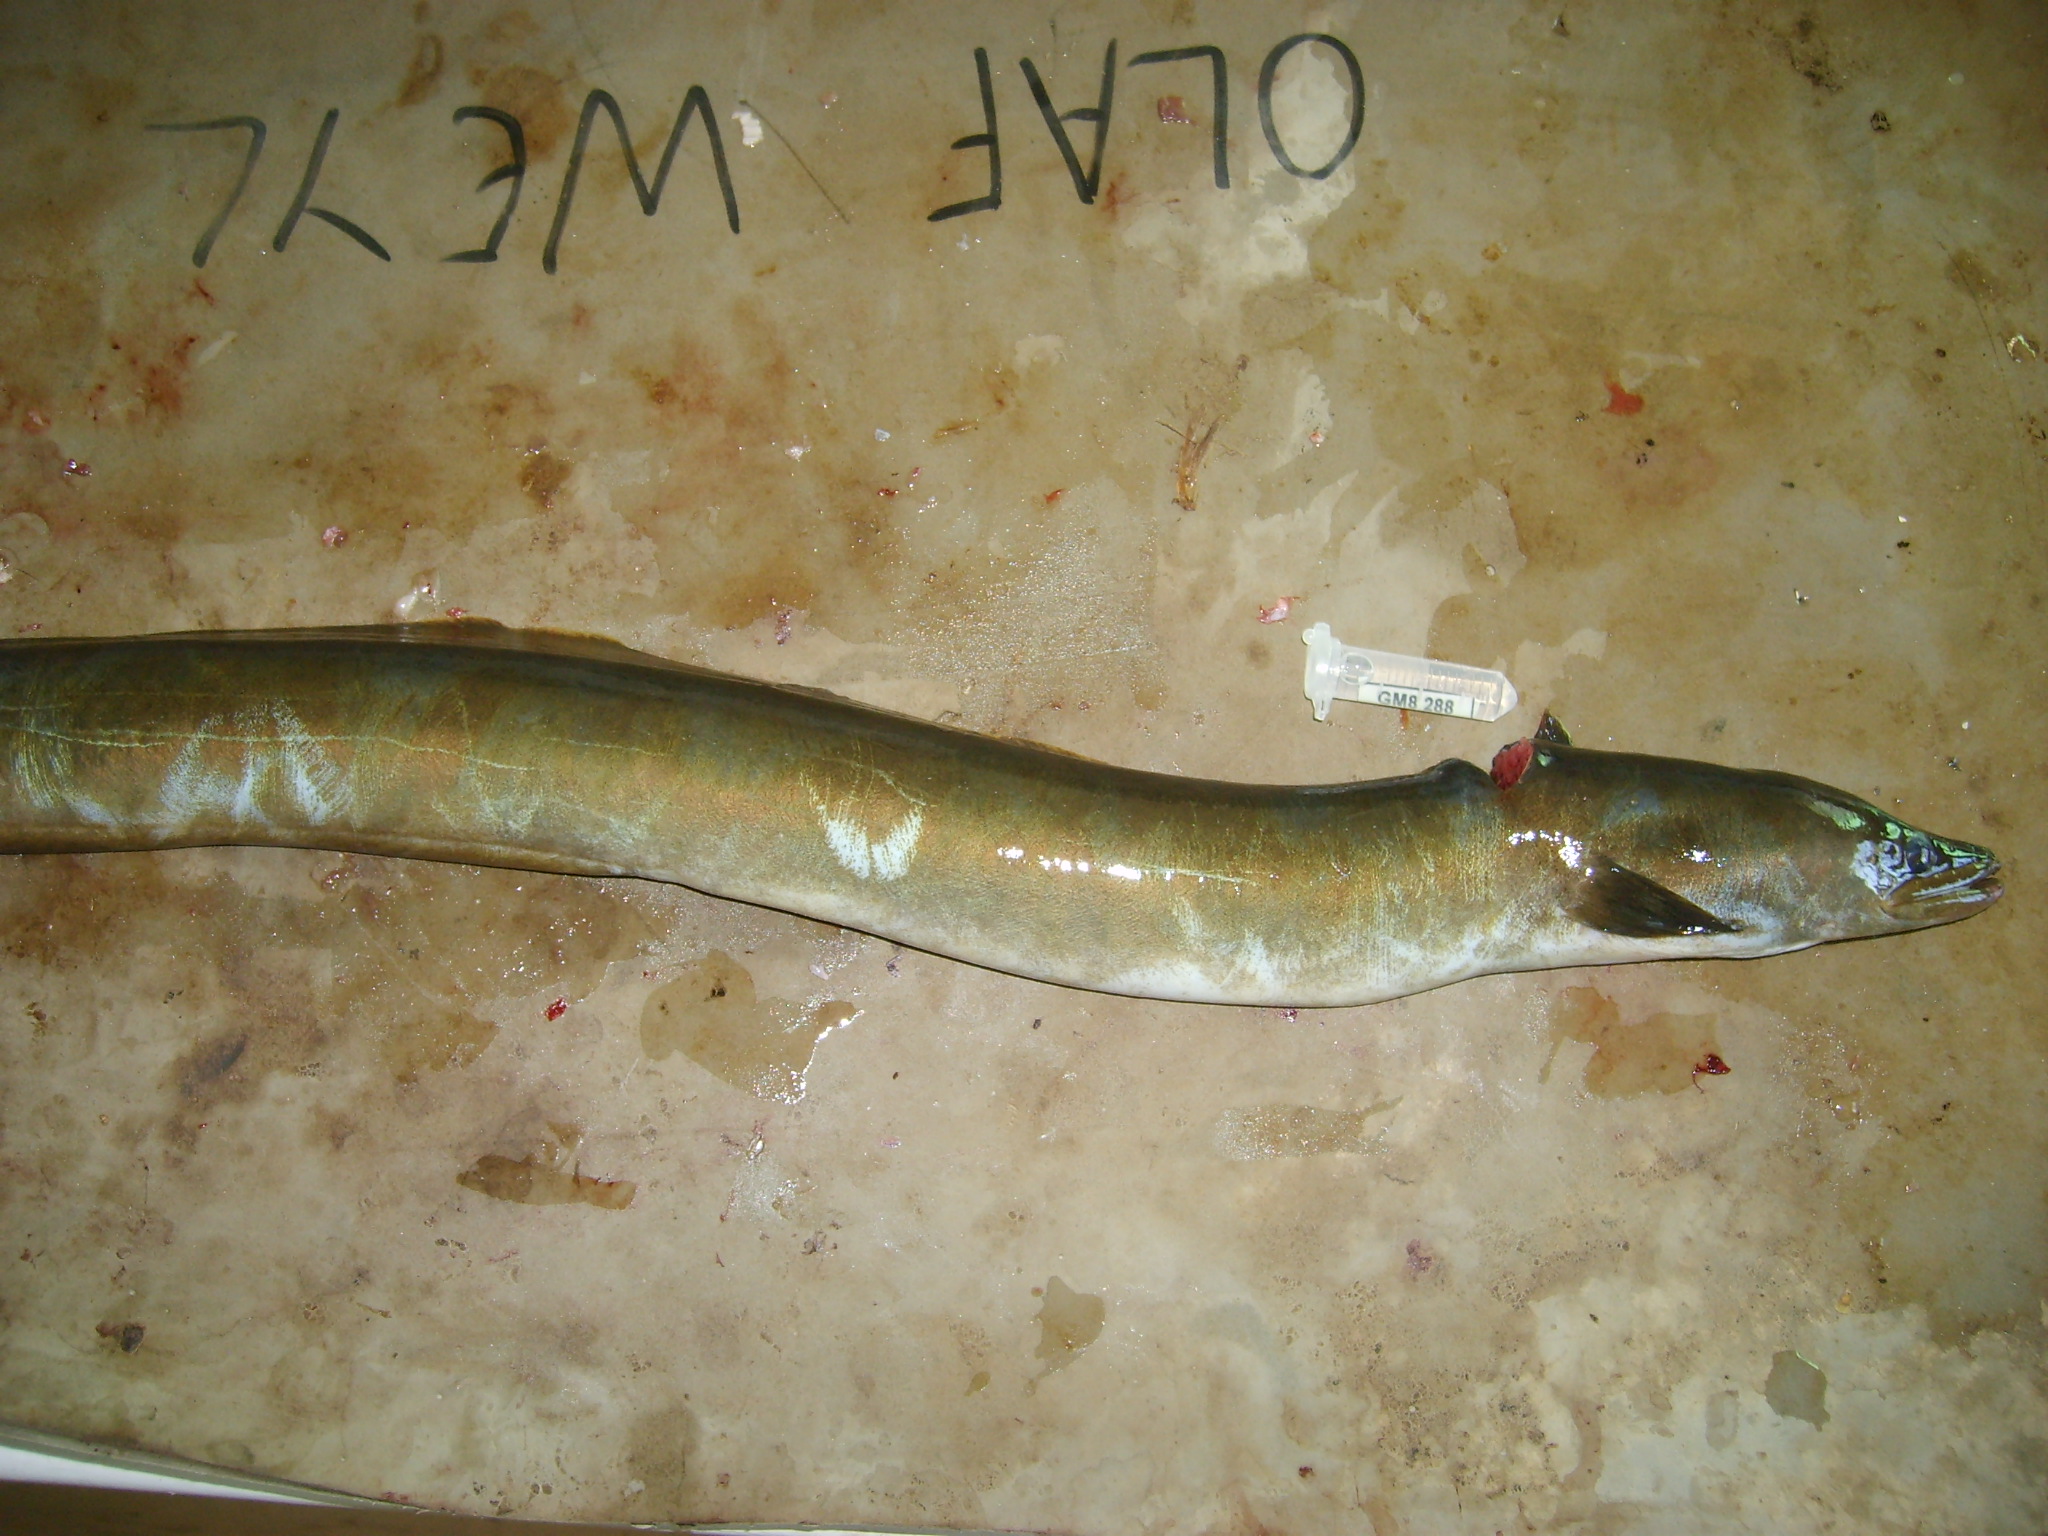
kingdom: Animalia
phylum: Chordata
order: Anguilliformes
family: Anguillidae
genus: Anguilla
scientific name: Anguilla mossambica
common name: African longfin eel
